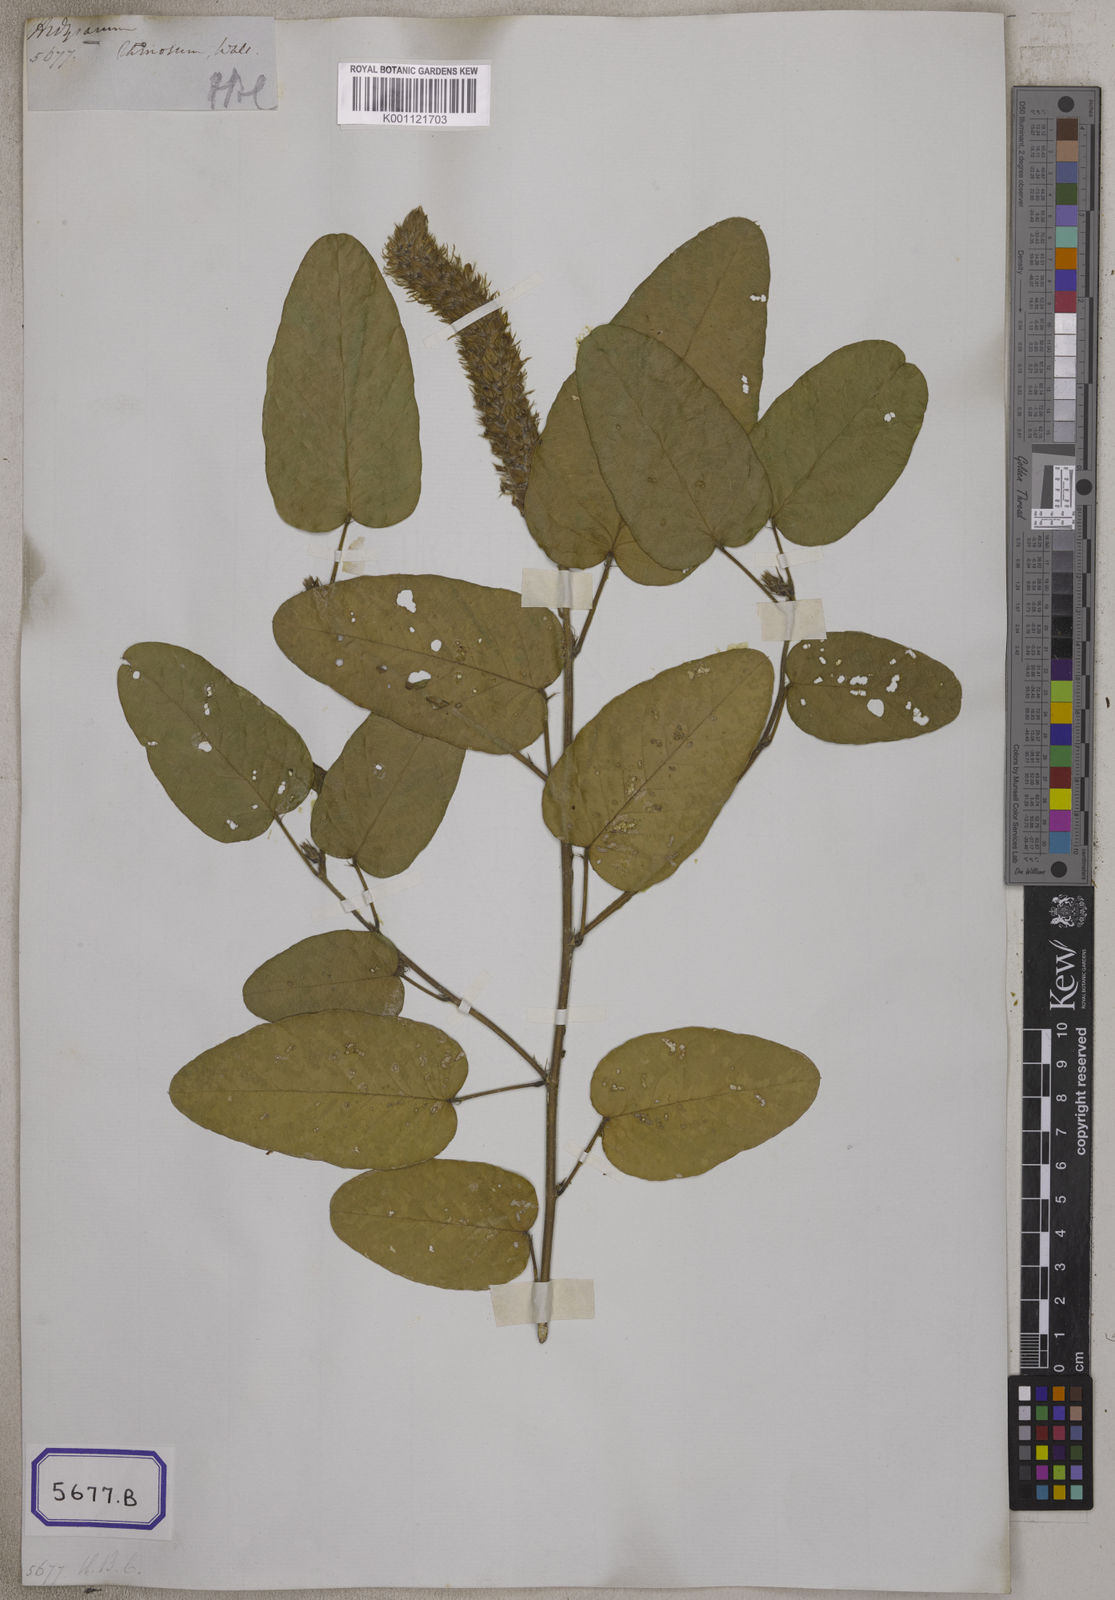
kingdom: Plantae
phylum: Tracheophyta
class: Magnoliopsida
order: Fabales
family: Fabaceae
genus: Uraria
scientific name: Uraria
